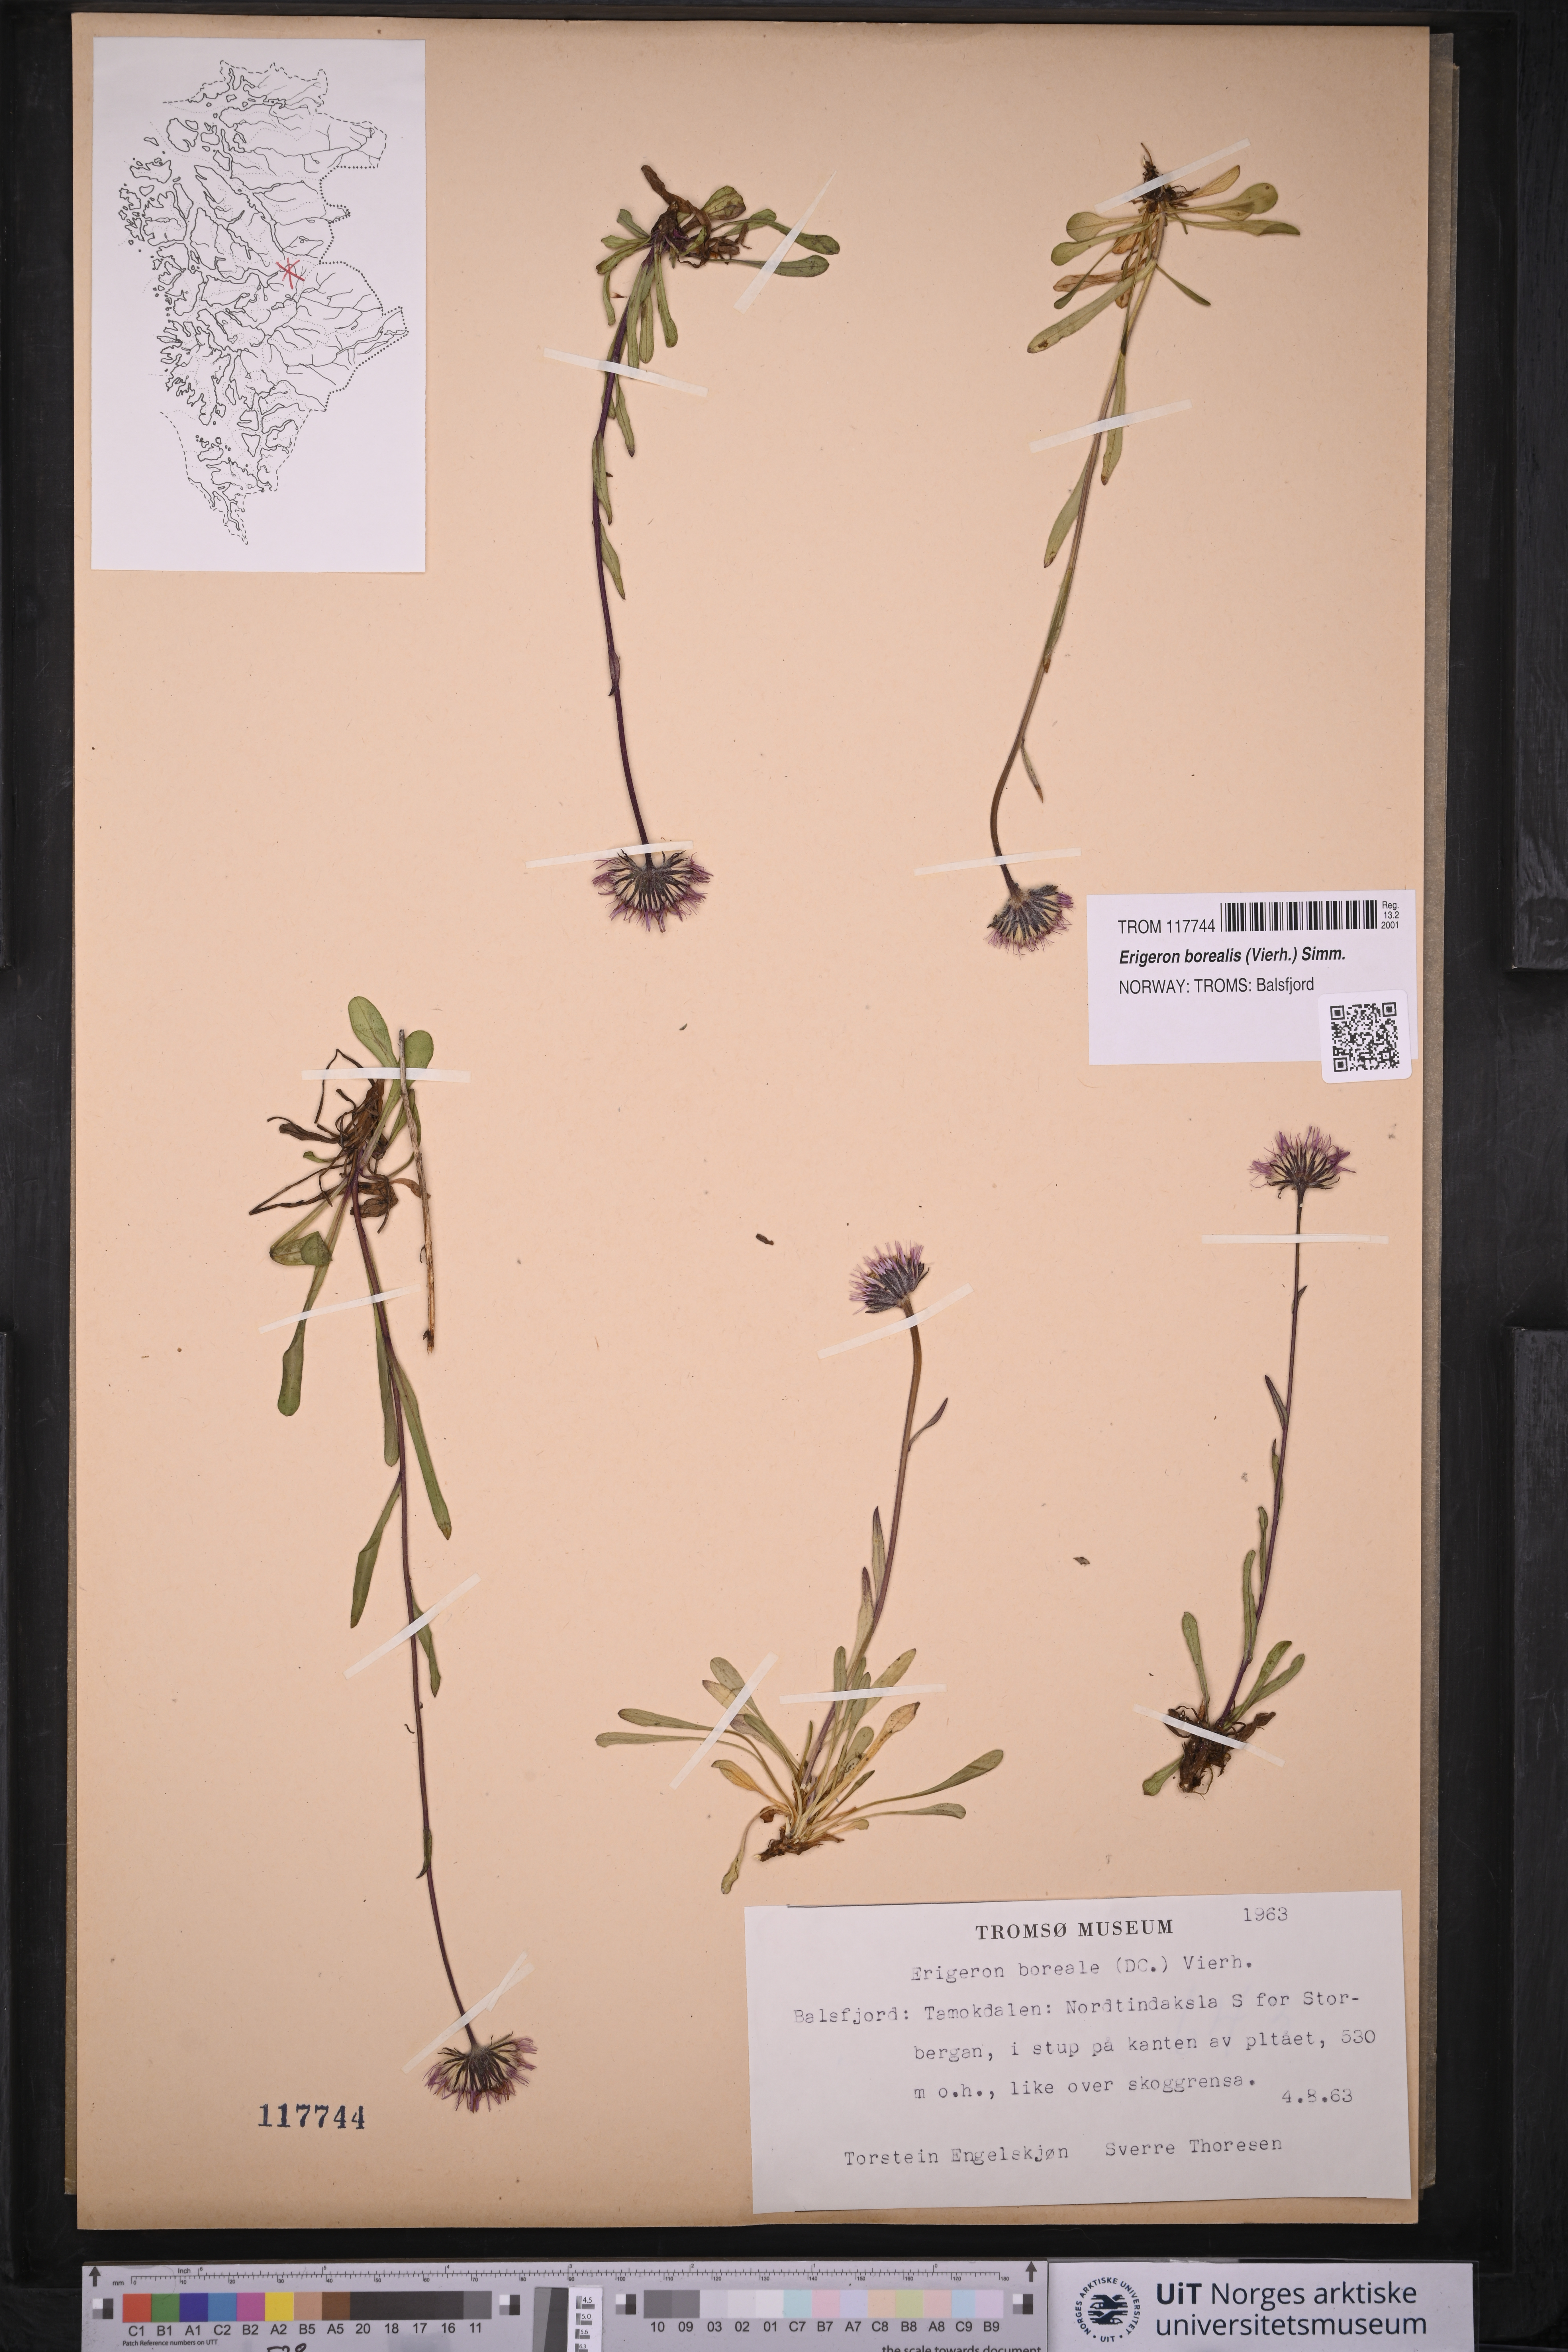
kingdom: Plantae
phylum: Tracheophyta
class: Magnoliopsida
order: Asterales
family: Asteraceae
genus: Erigeron
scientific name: Erigeron borealis
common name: Alpine fleabane
